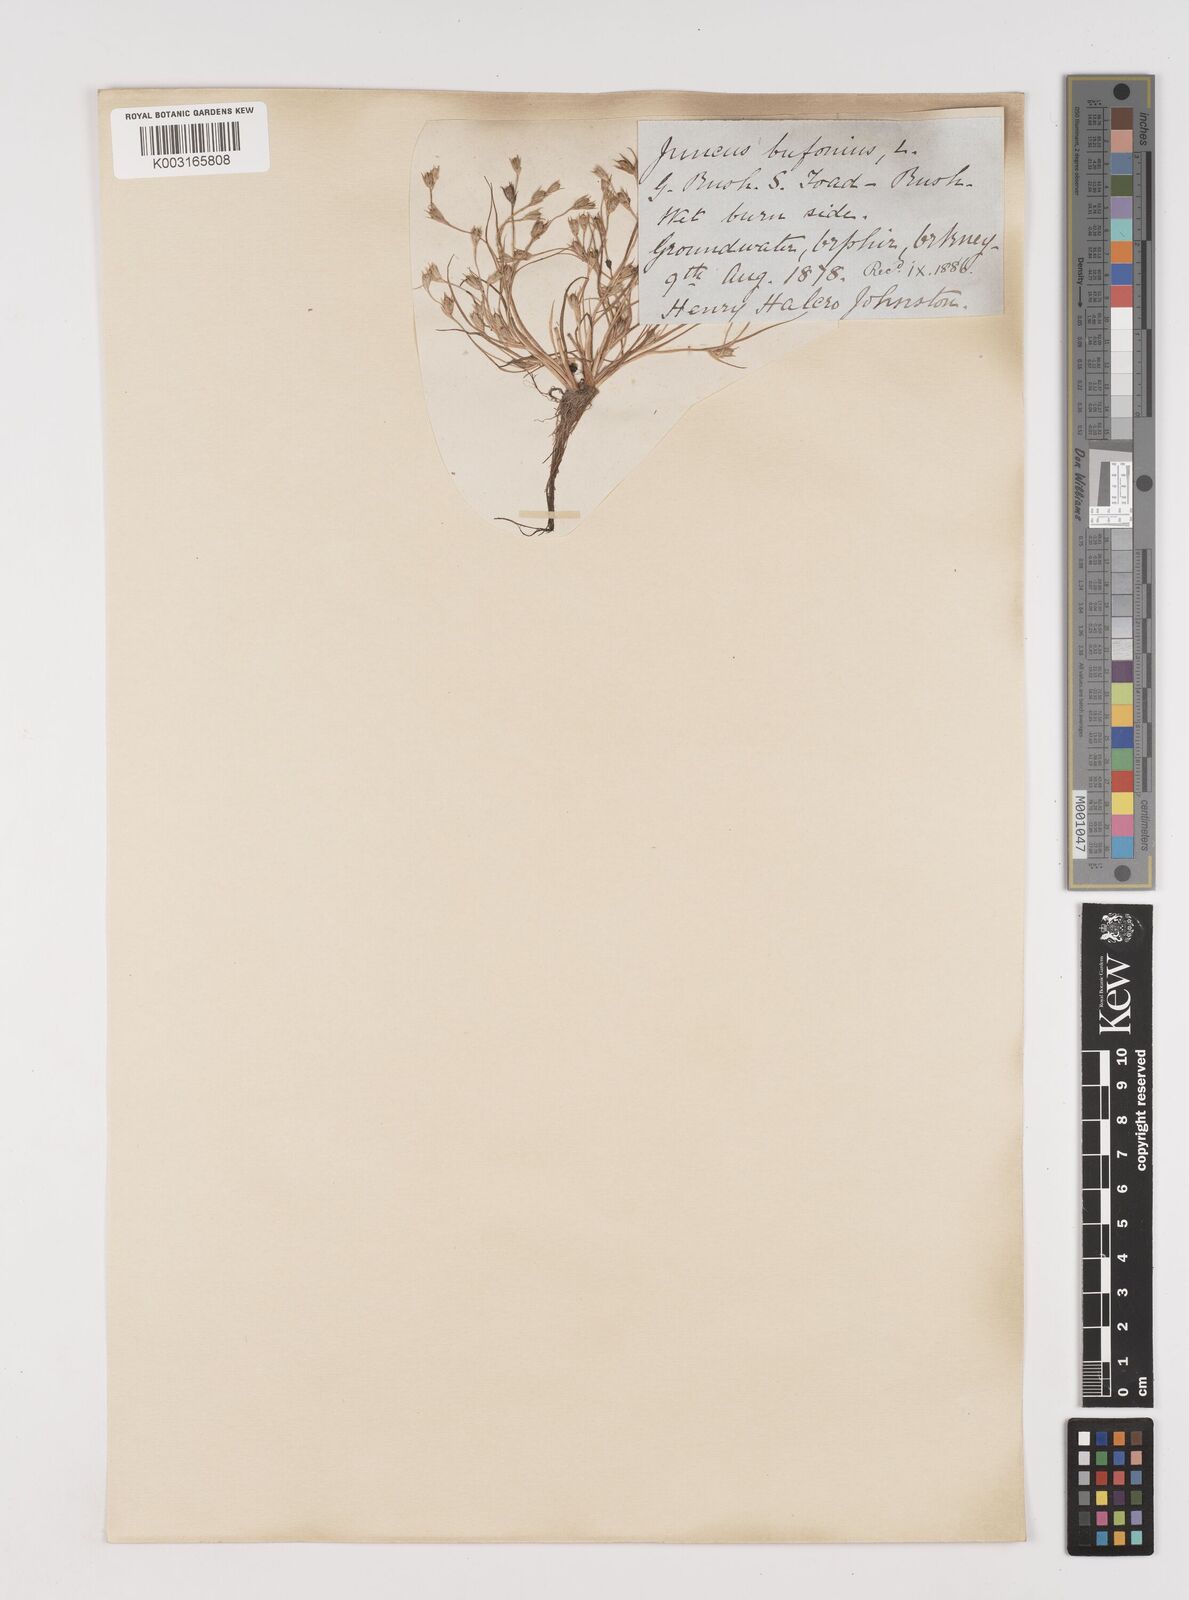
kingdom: Plantae
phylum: Tracheophyta
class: Liliopsida
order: Poales
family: Juncaceae
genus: Juncus
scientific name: Juncus bufonius
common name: Toad rush
